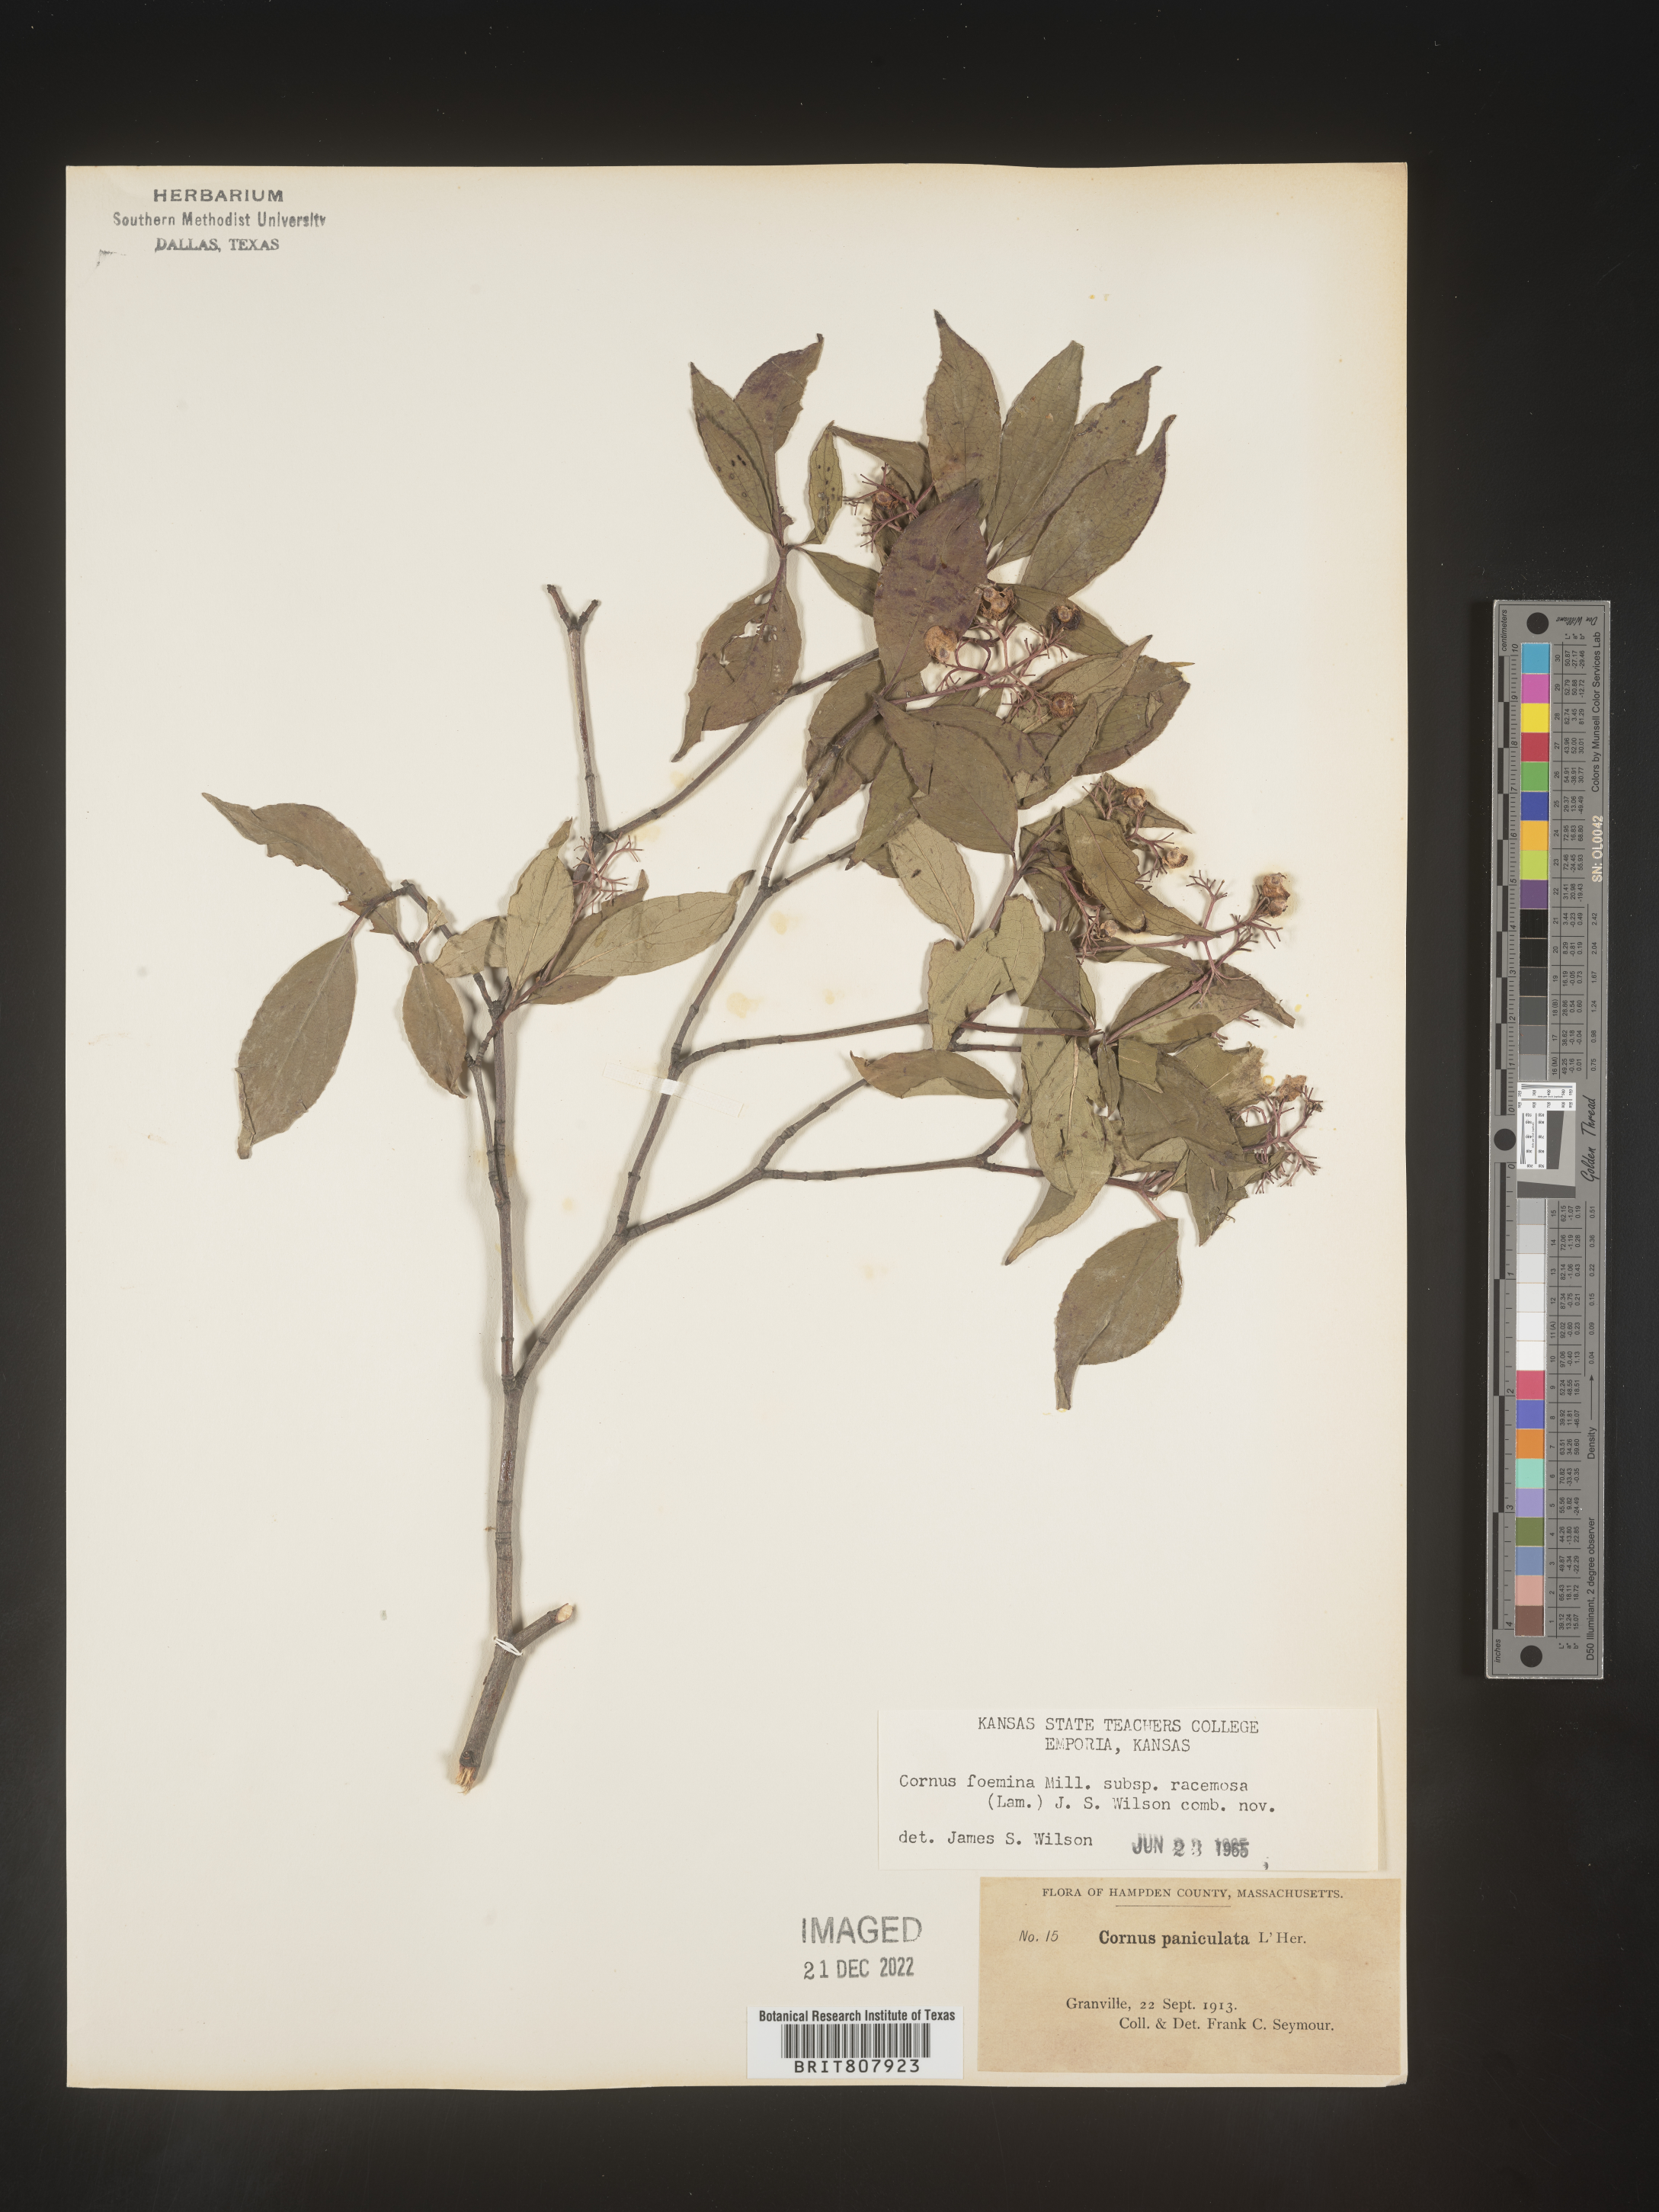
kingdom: Plantae
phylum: Tracheophyta
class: Magnoliopsida
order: Cornales
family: Cornaceae
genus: Cornus
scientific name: Cornus racemosa
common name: Panicled dogwood
